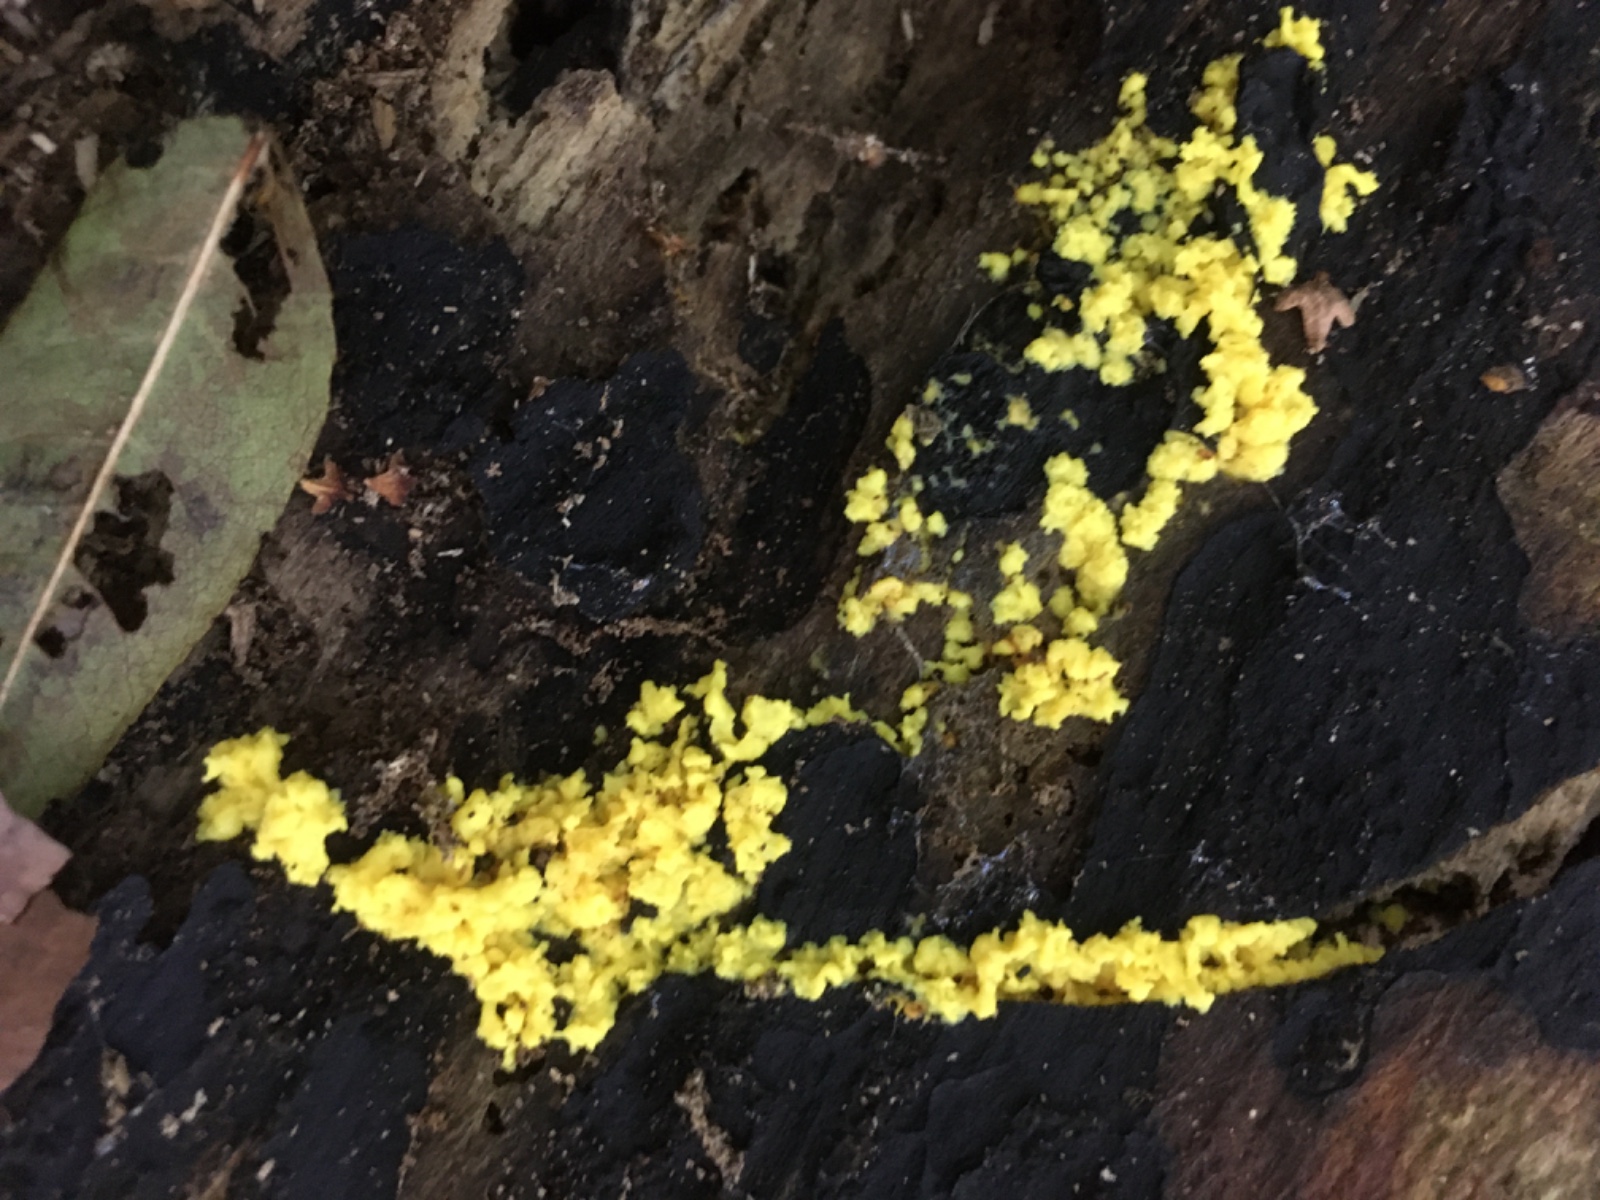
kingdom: Protozoa
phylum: Mycetozoa
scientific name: Mycetozoa
